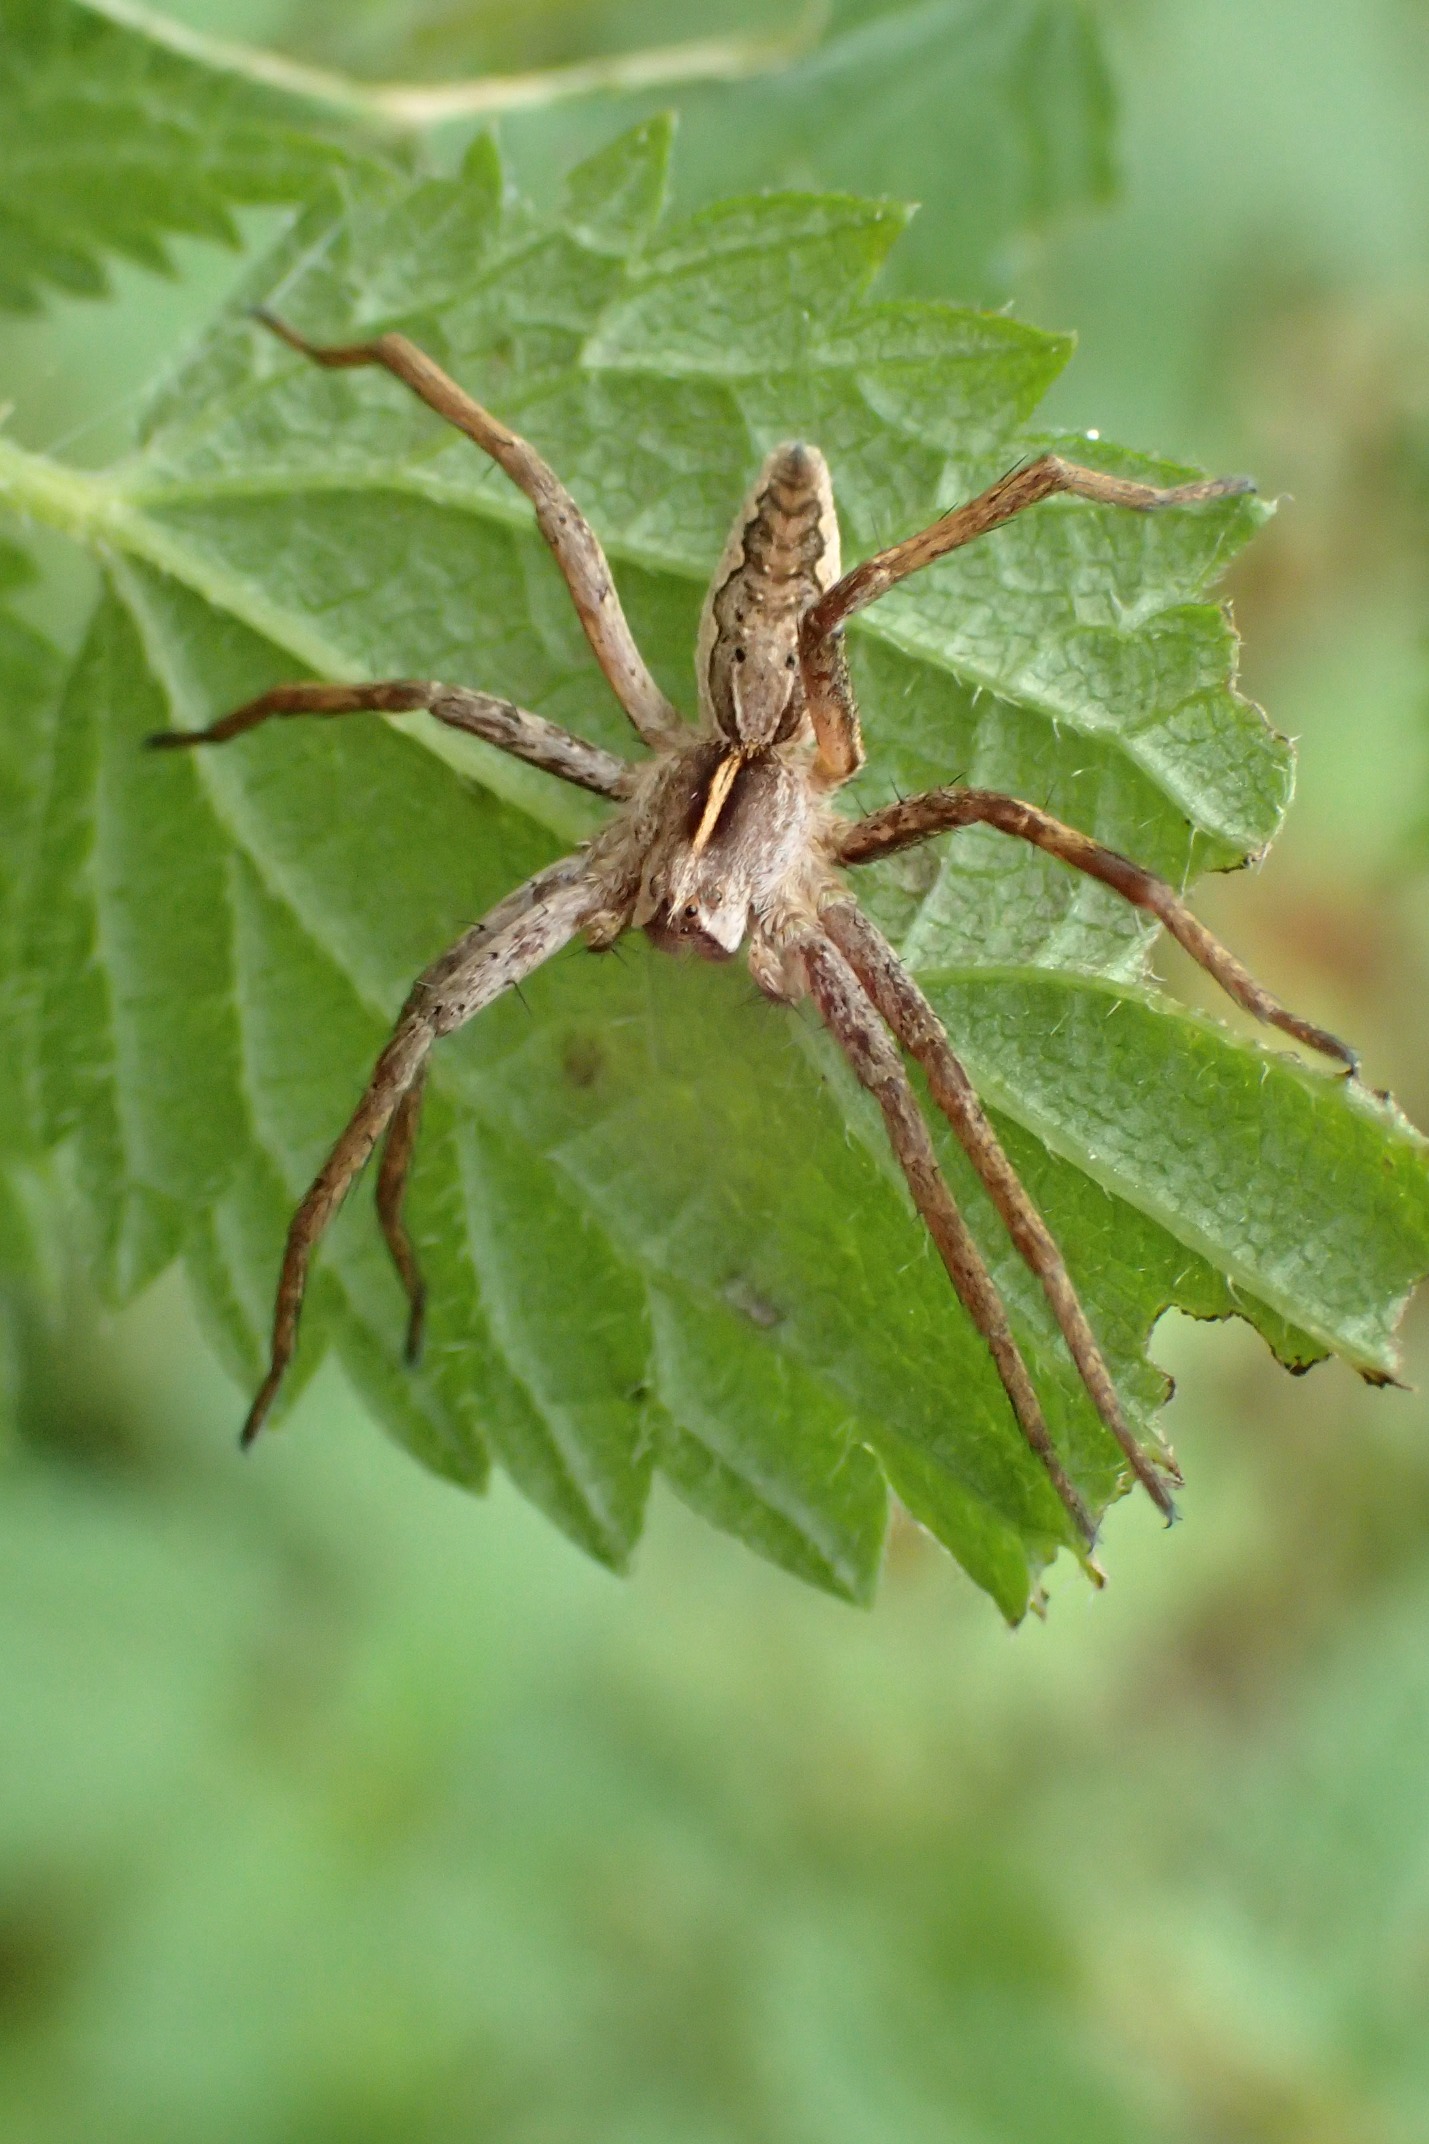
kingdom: Animalia
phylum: Arthropoda
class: Arachnida
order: Araneae
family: Pisauridae
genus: Pisaura
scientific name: Pisaura mirabilis
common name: Almindelig rovedderkop
